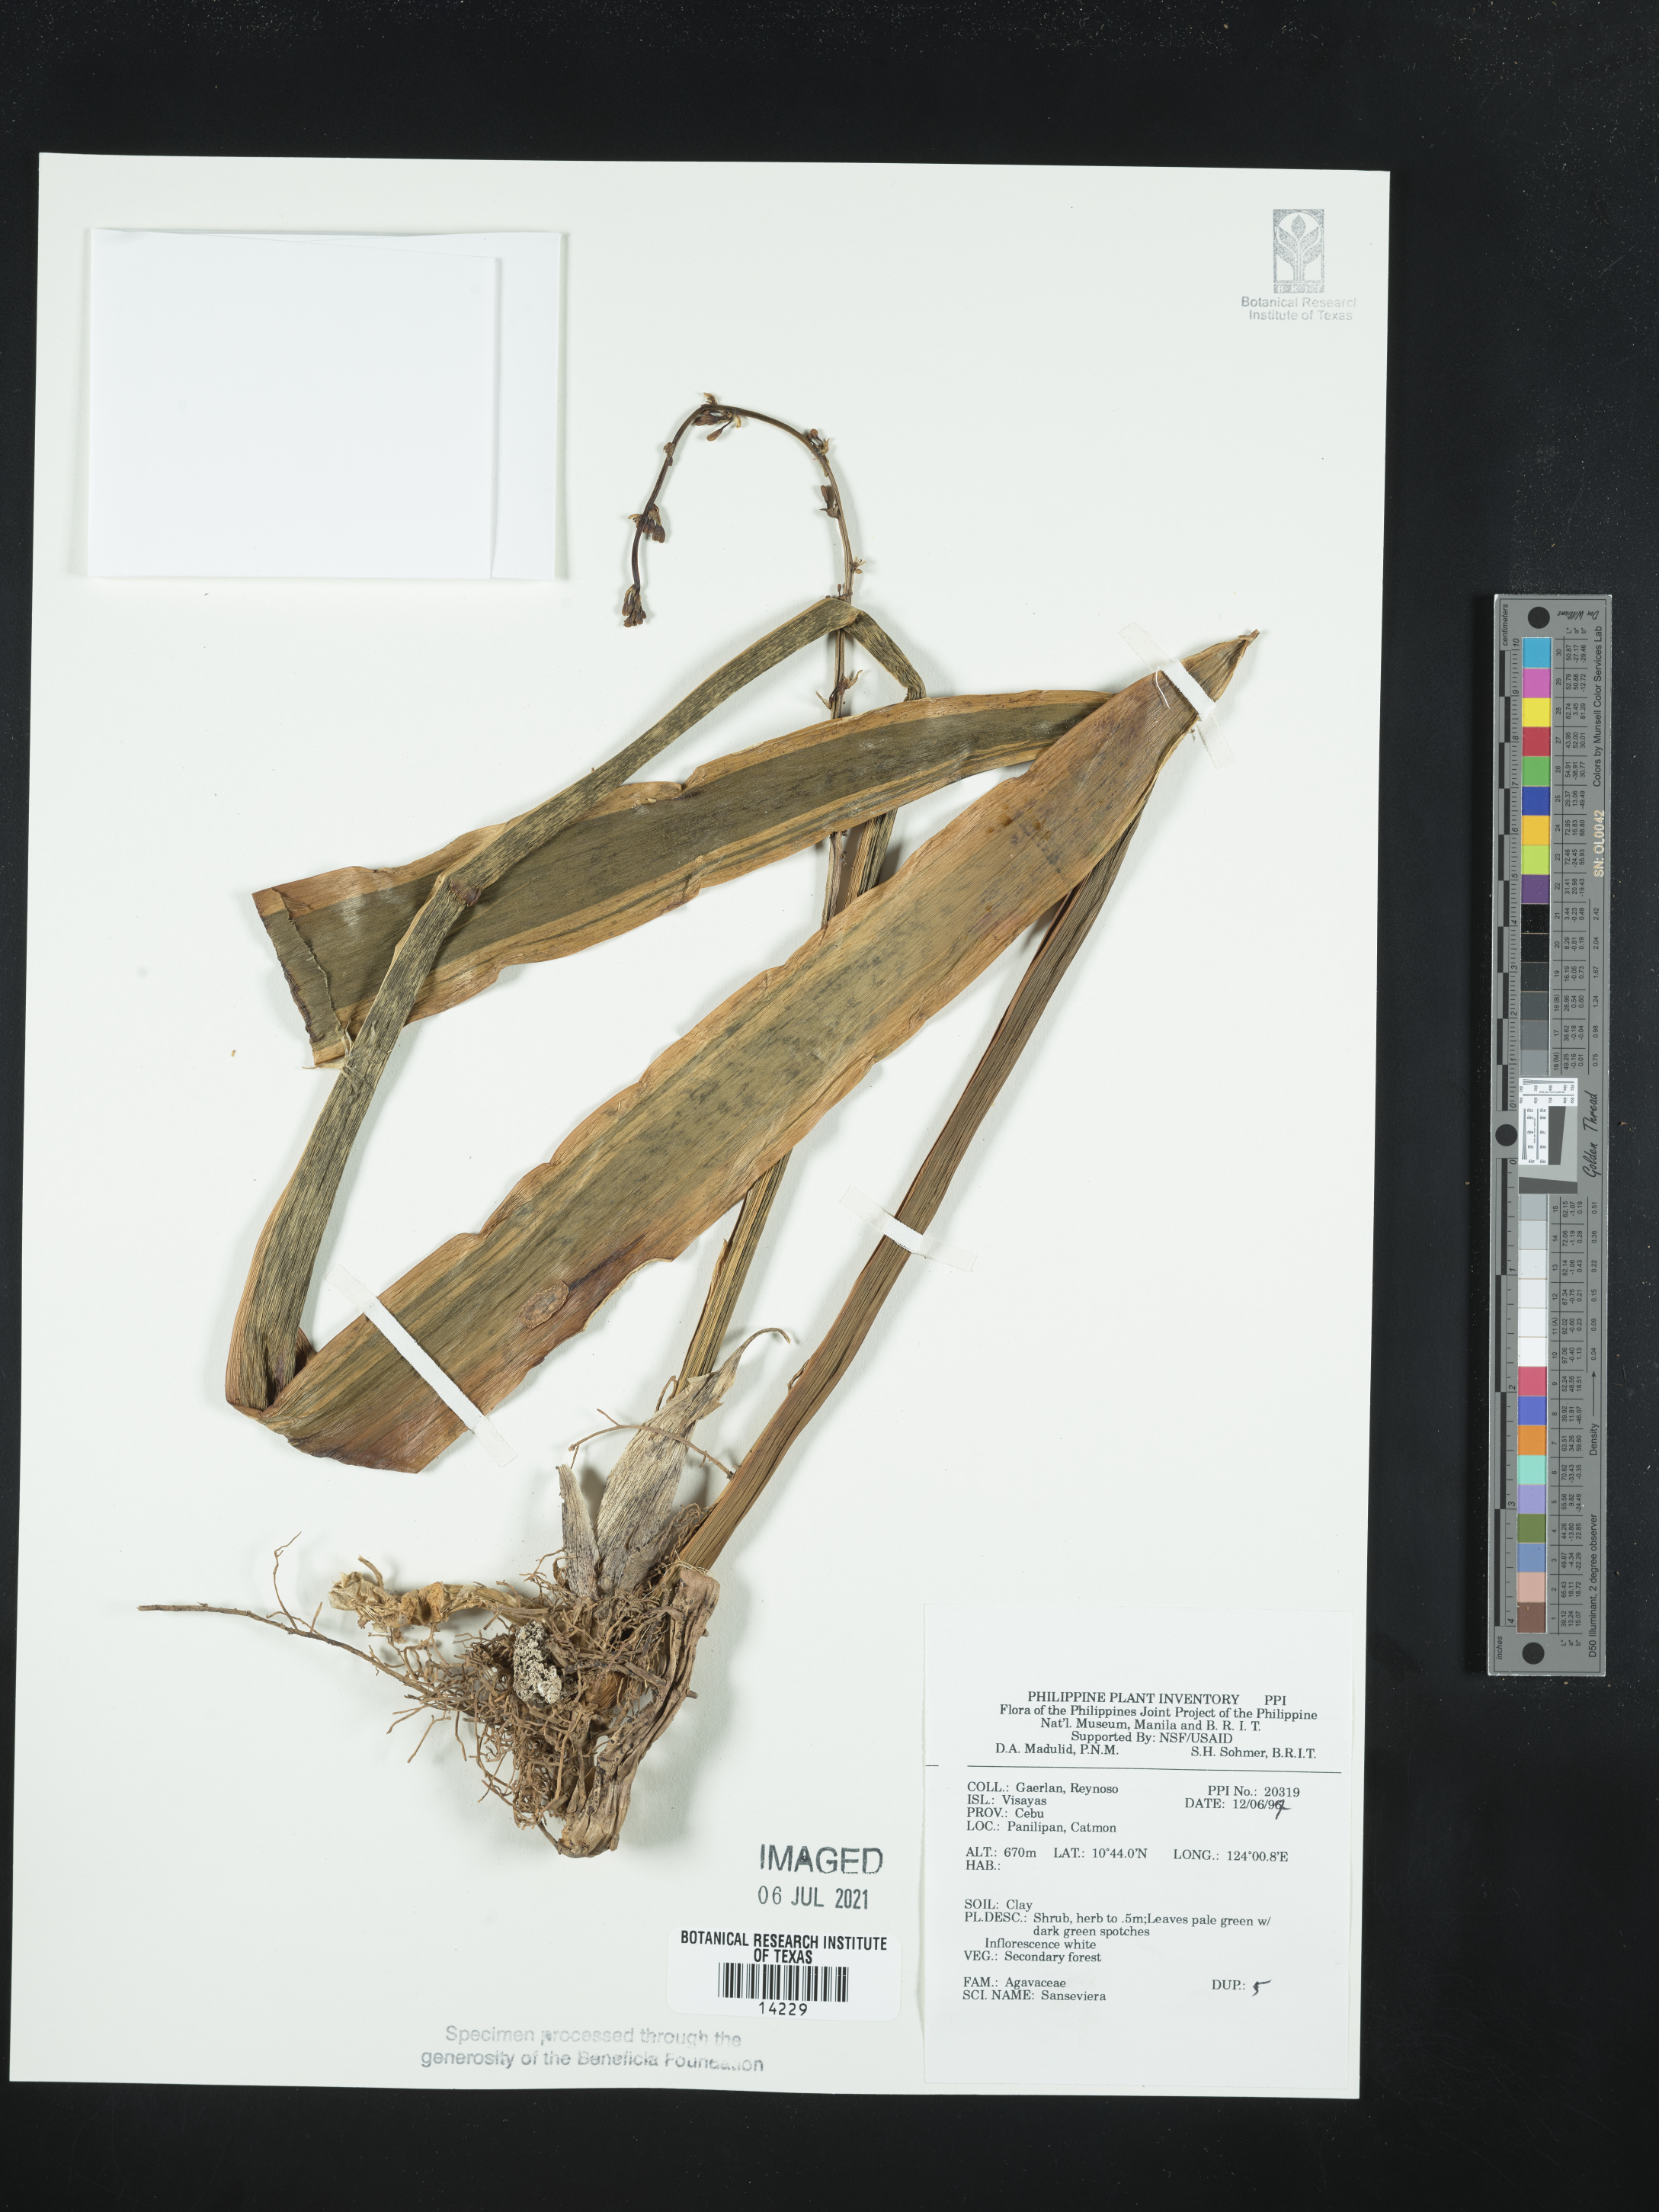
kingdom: Plantae
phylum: Tracheophyta
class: Liliopsida
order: Asparagales
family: Asparagaceae
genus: Sansevieria
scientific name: Sansevieria
